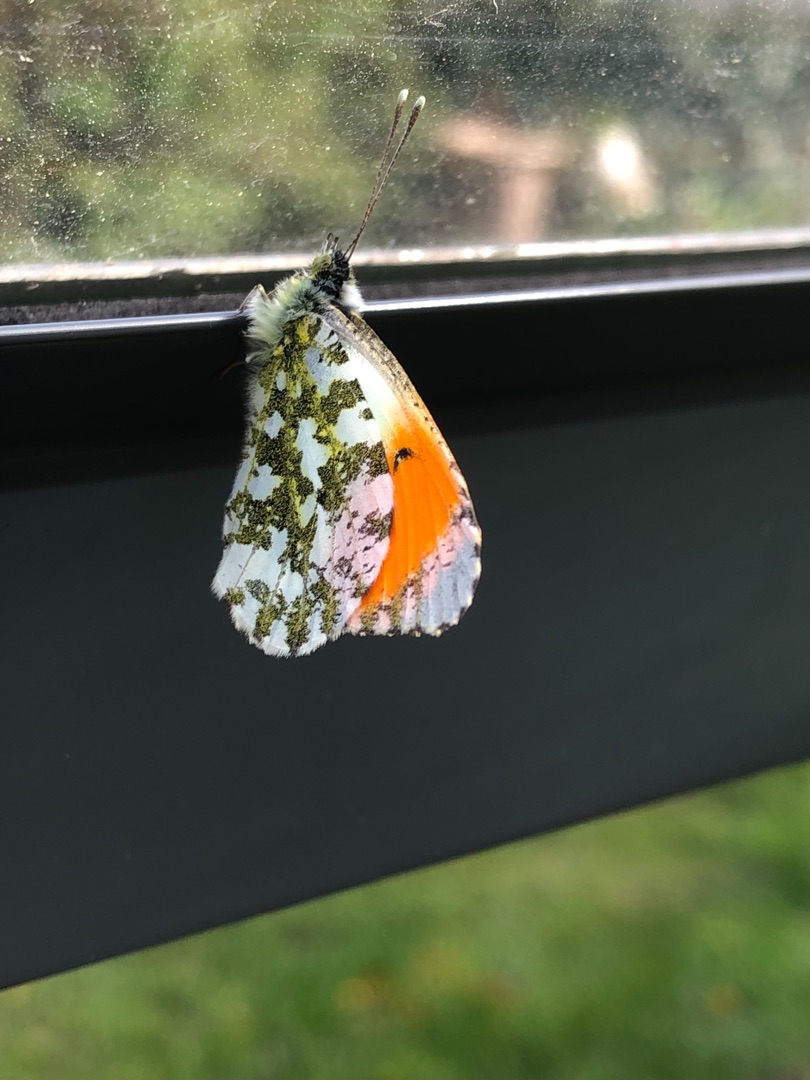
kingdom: Animalia
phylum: Arthropoda
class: Insecta
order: Lepidoptera
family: Pieridae
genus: Anthocharis
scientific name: Anthocharis cardamines
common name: Aurora
